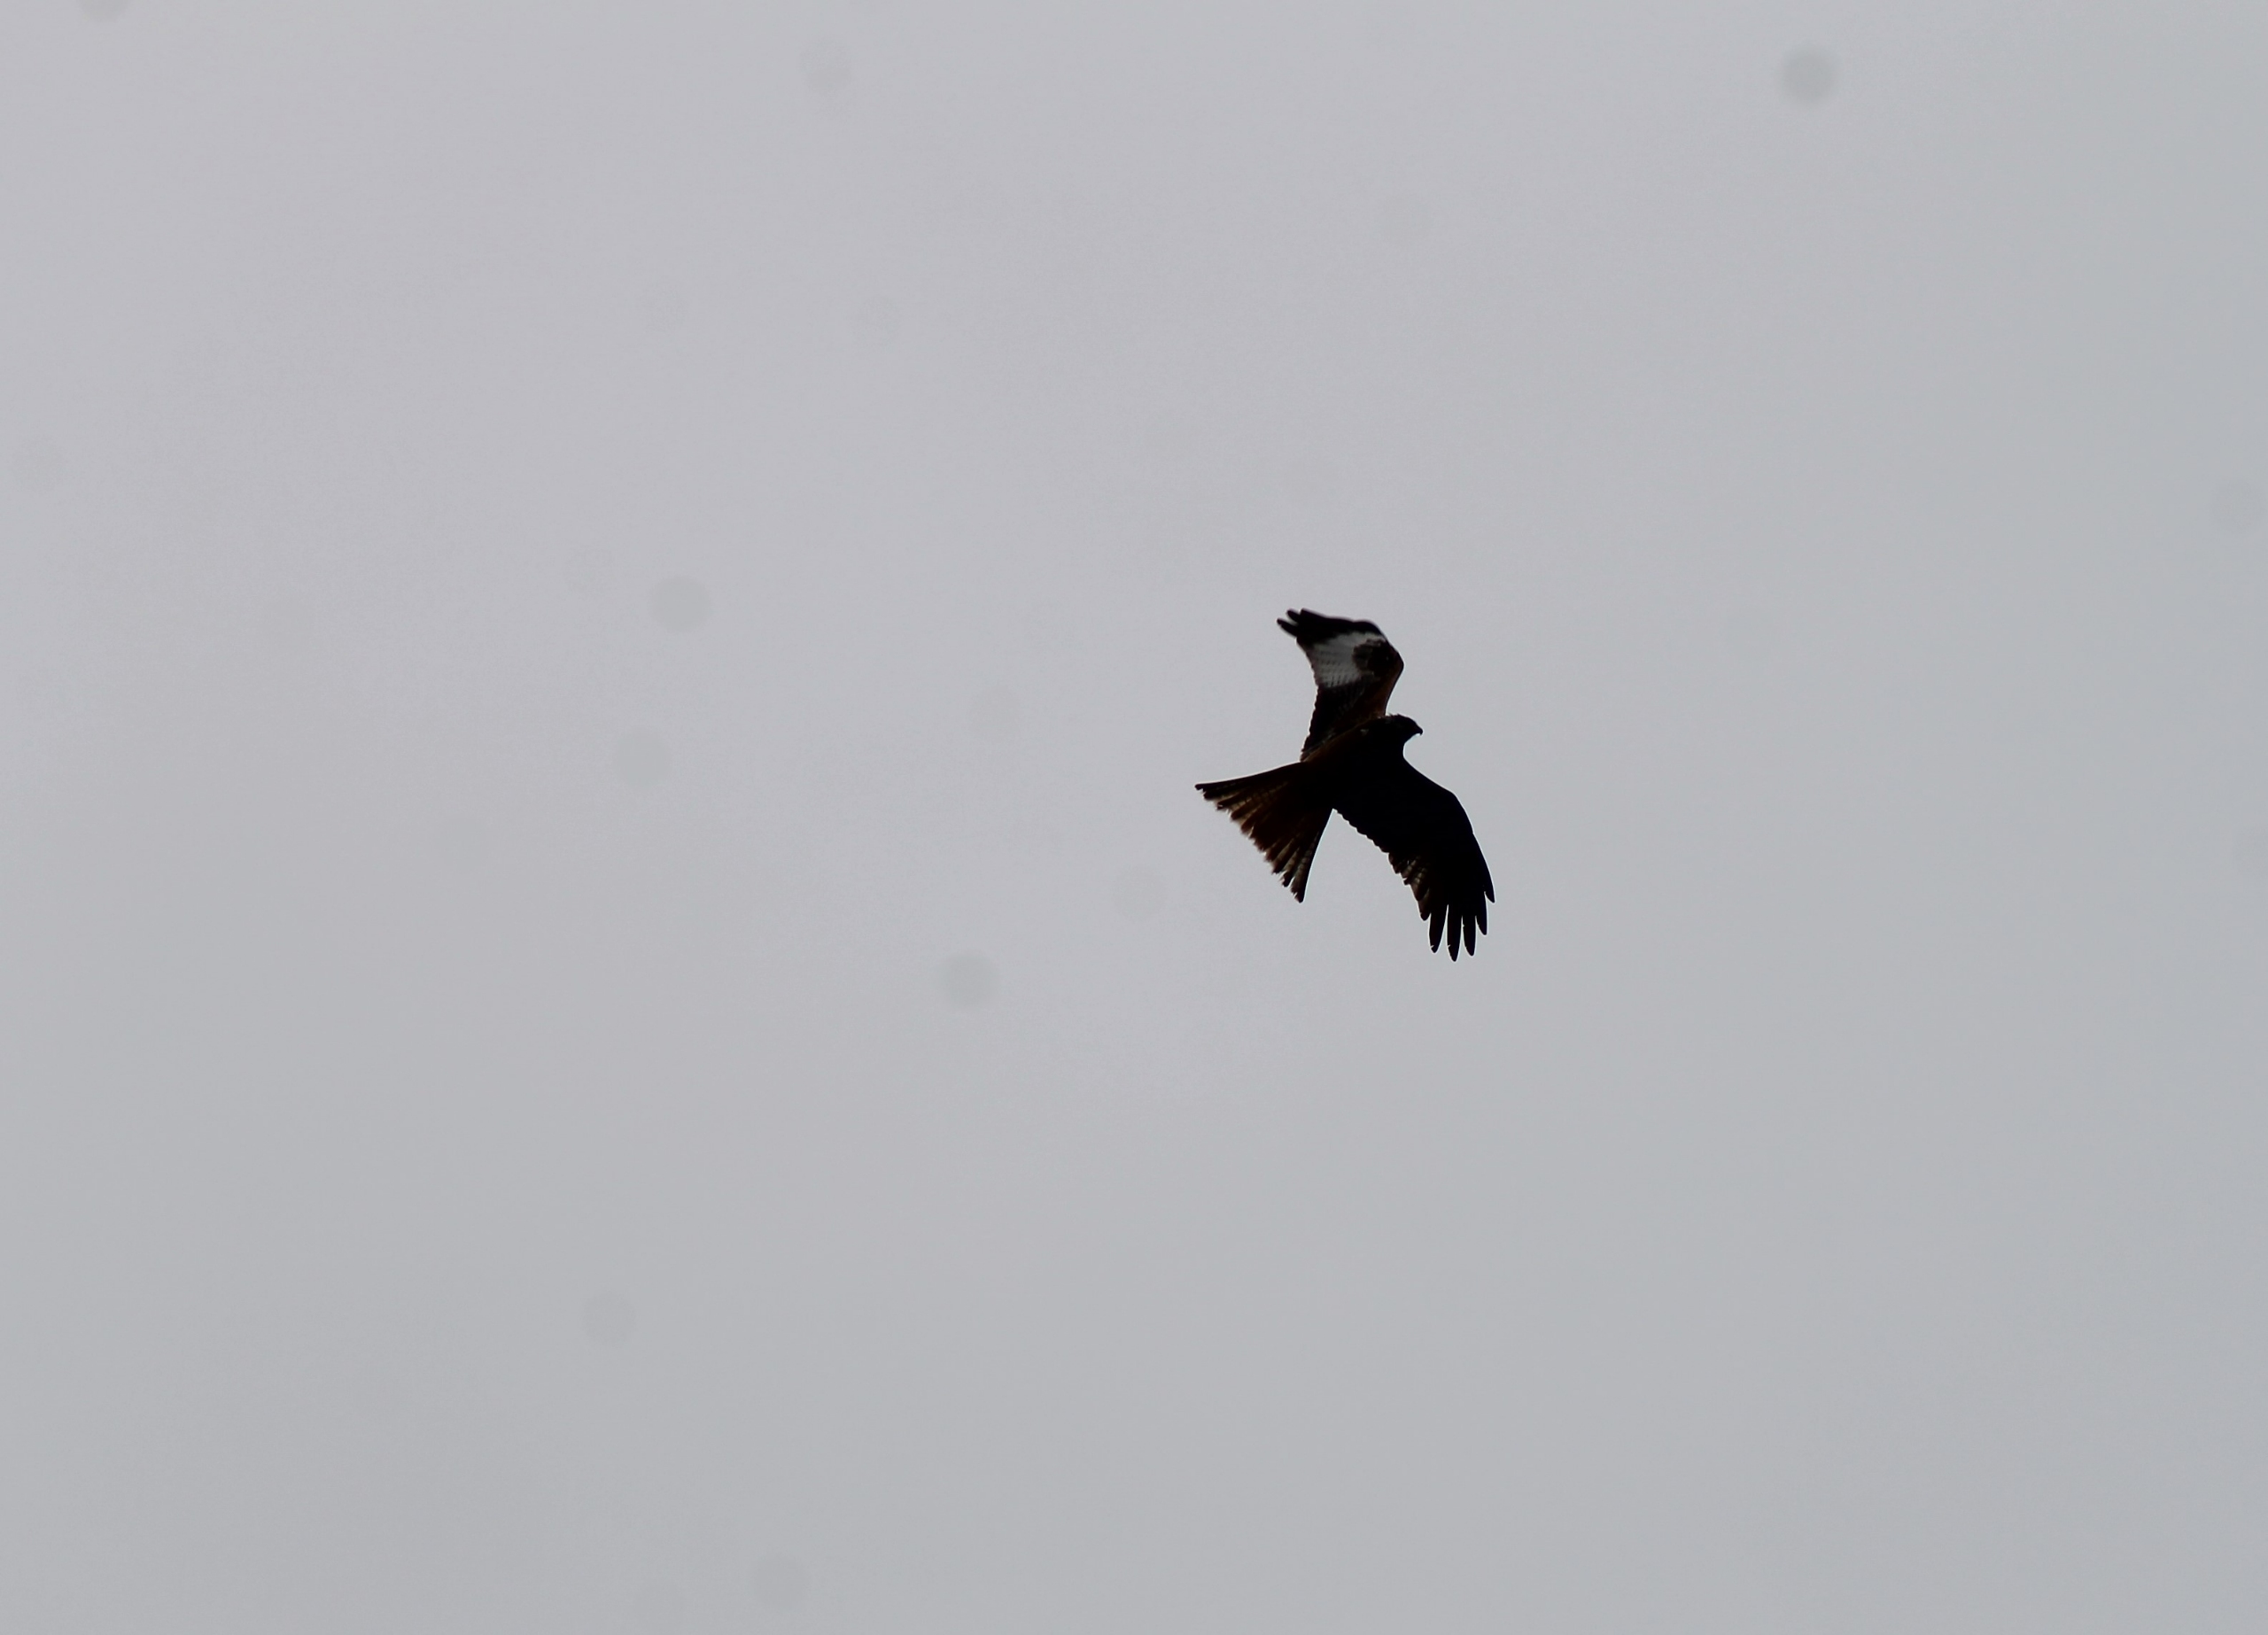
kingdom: Animalia
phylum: Chordata
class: Aves
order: Accipitriformes
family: Accipitridae
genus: Milvus
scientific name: Milvus milvus
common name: Rød glente
